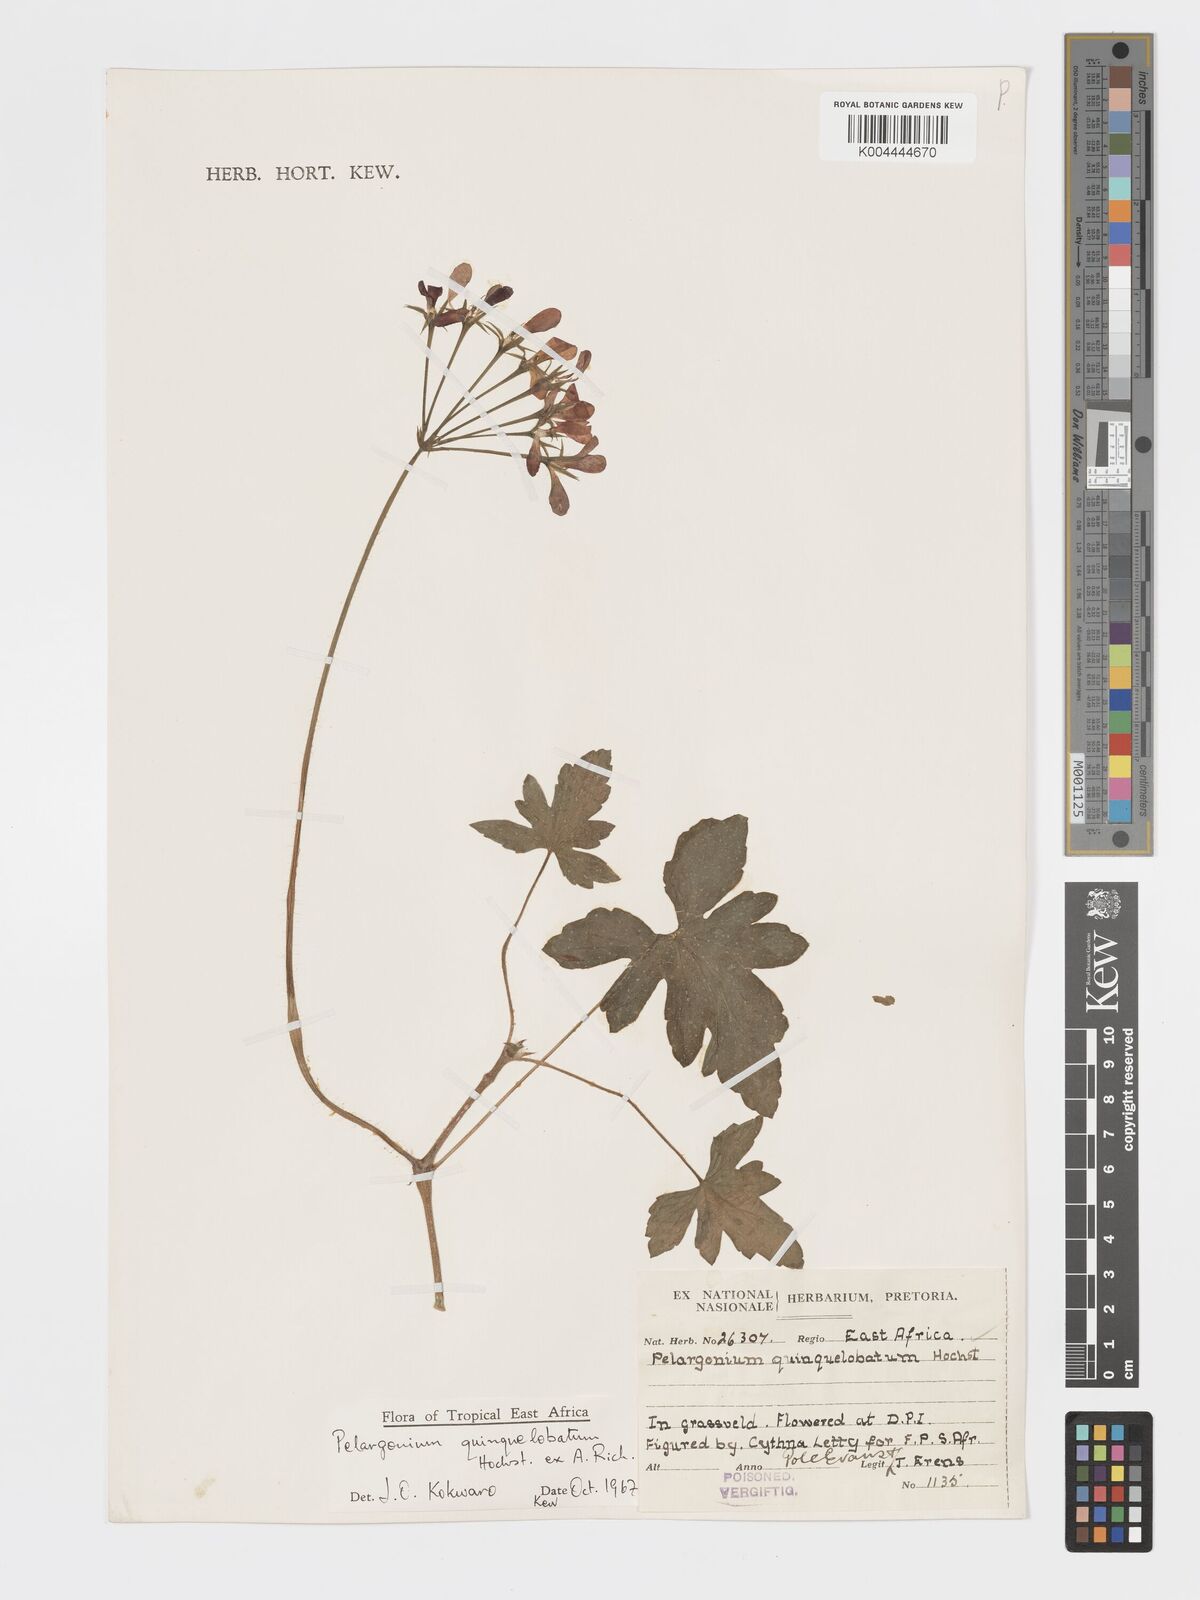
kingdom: Plantae
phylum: Tracheophyta
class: Magnoliopsida
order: Geraniales
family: Geraniaceae
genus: Pelargonium
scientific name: Pelargonium quinquelobatum
